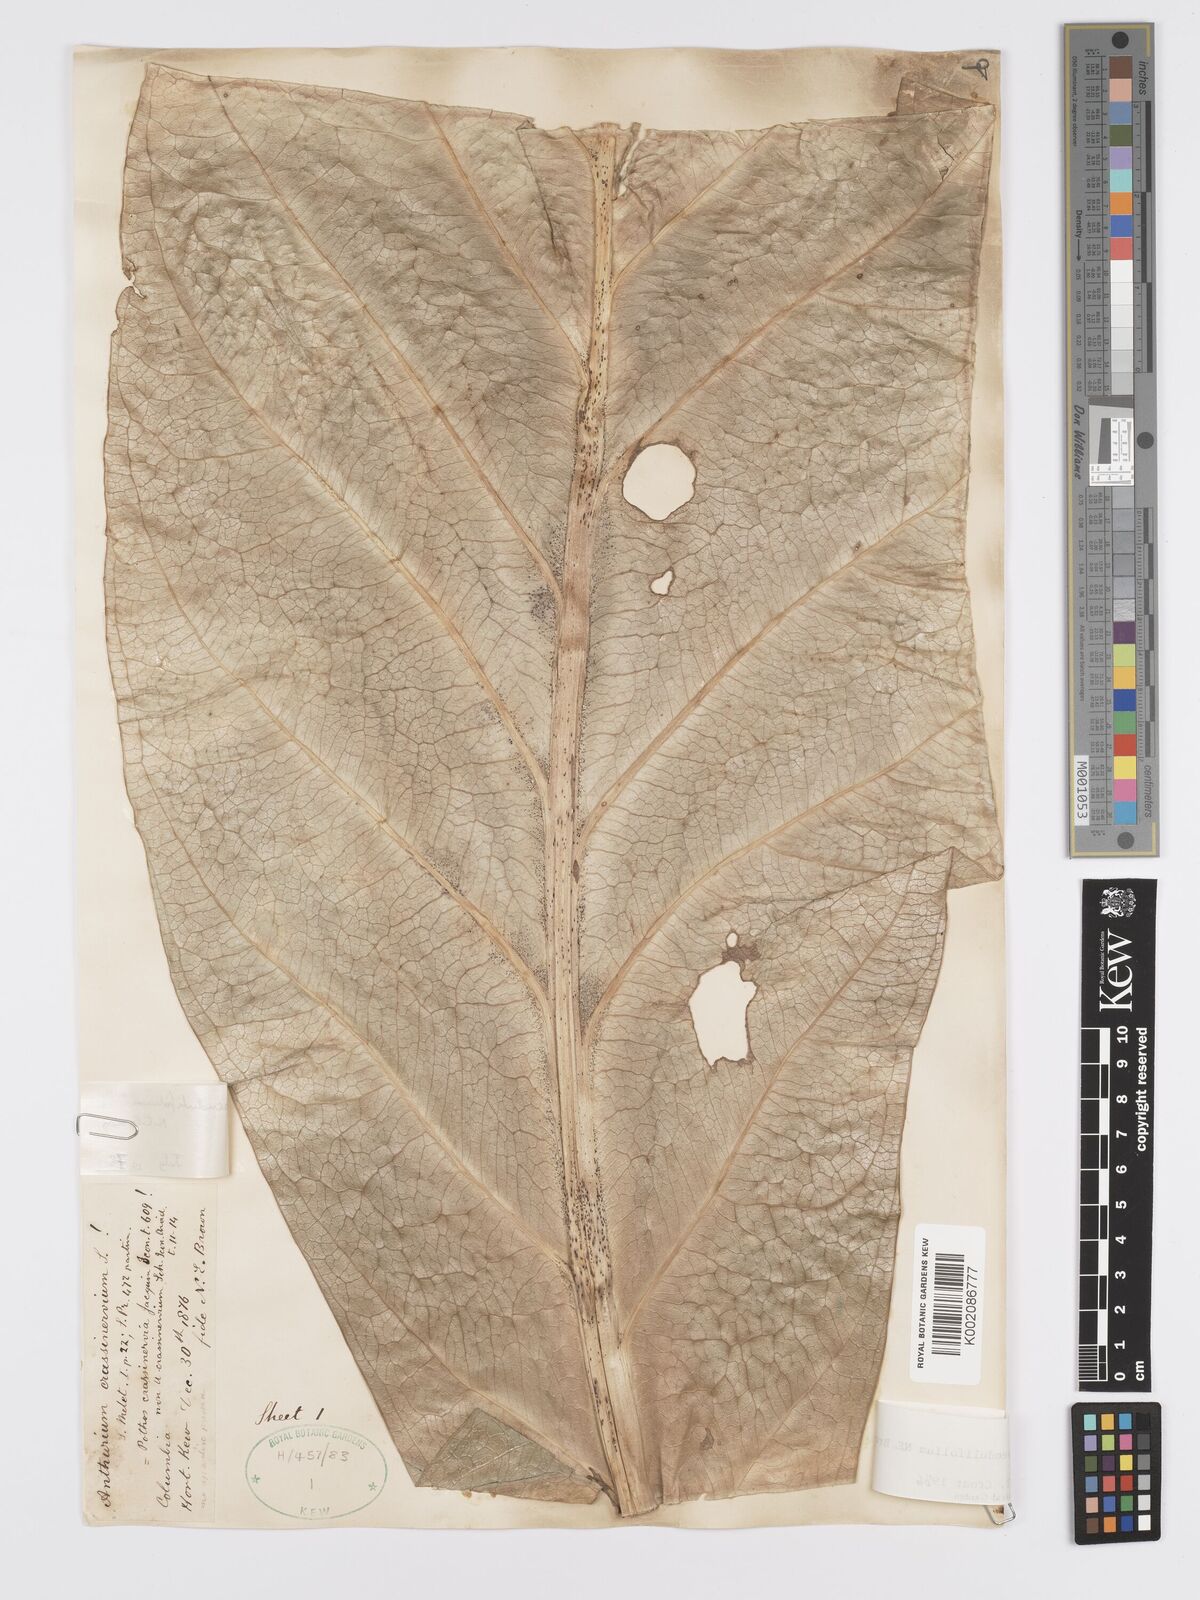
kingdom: Plantae
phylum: Tracheophyta
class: Liliopsida
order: Alismatales
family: Araceae
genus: Anthurium
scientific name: Anthurium pendulifolium
